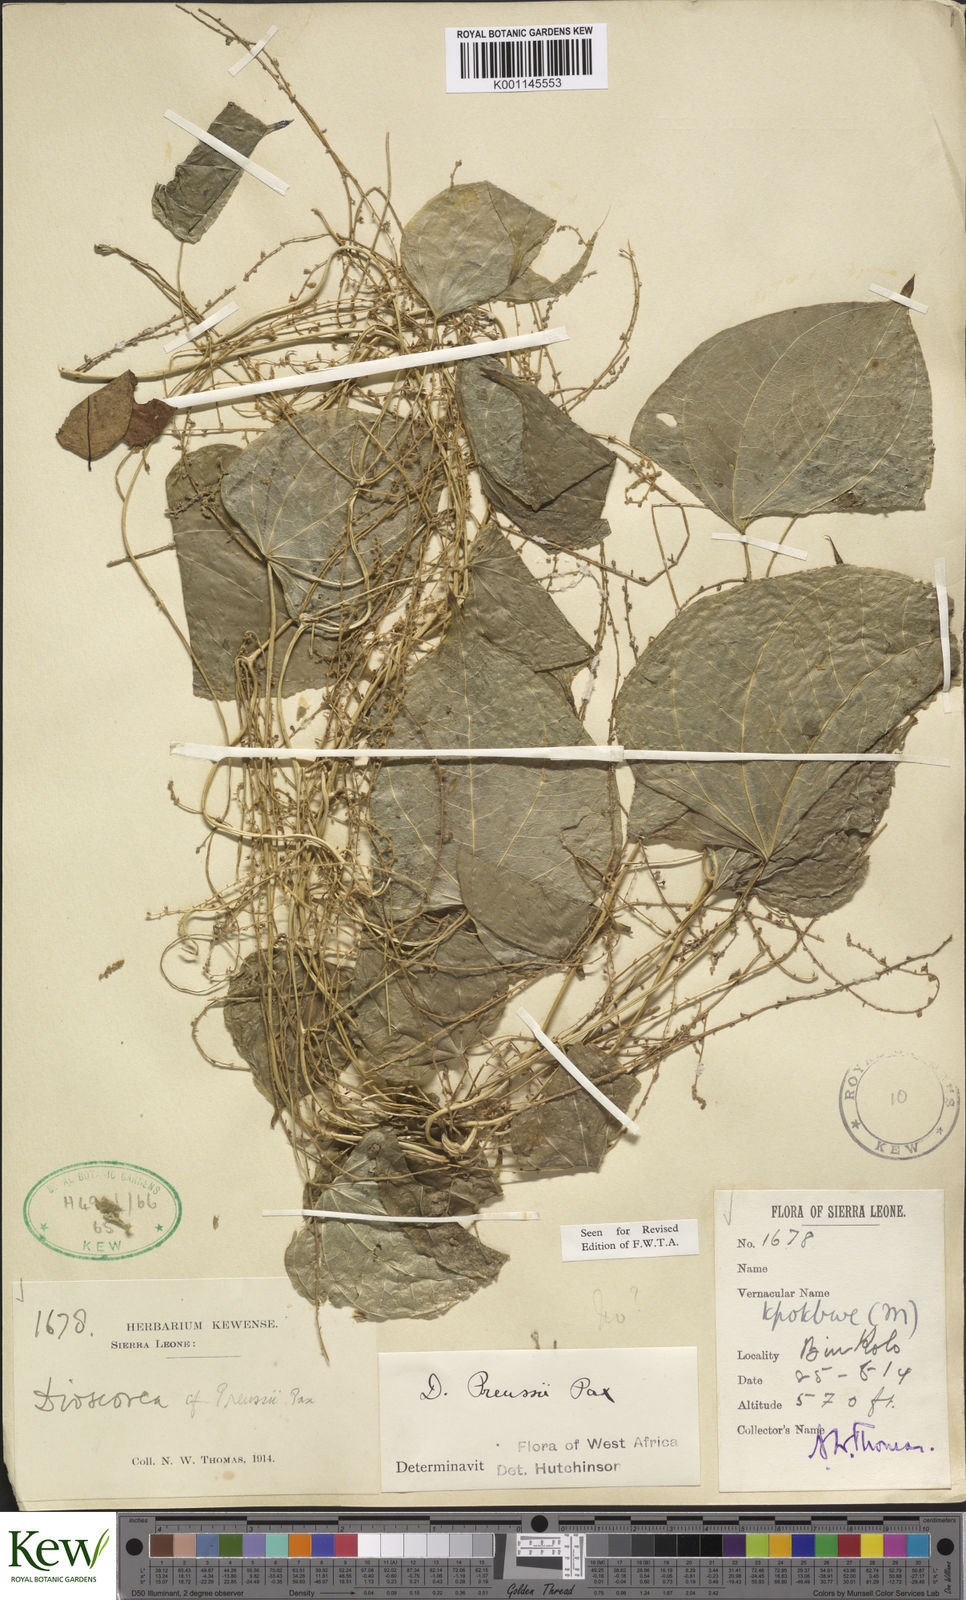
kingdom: Plantae
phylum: Tracheophyta
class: Liliopsida
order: Dioscoreales
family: Dioscoreaceae
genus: Dioscorea
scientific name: Dioscorea preussii
